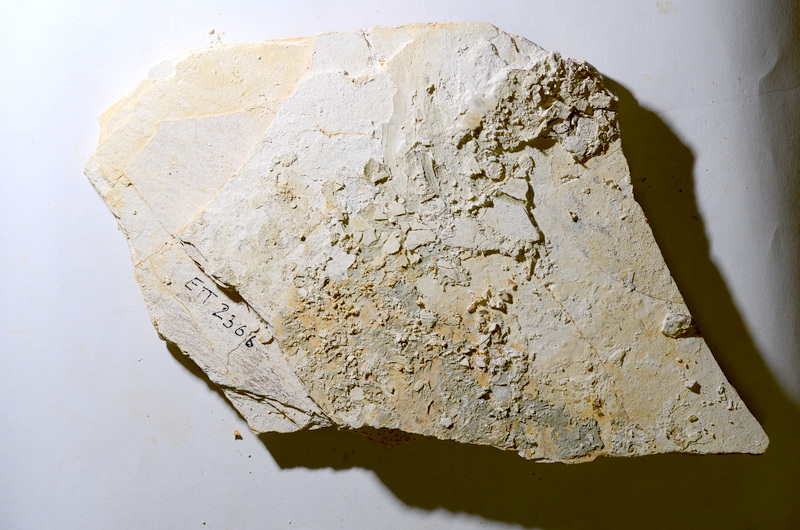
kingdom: Animalia
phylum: Chordata
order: Salmoniformes
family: Orthogonikleithridae
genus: Orthogonikleithrus
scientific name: Orthogonikleithrus hoelli
